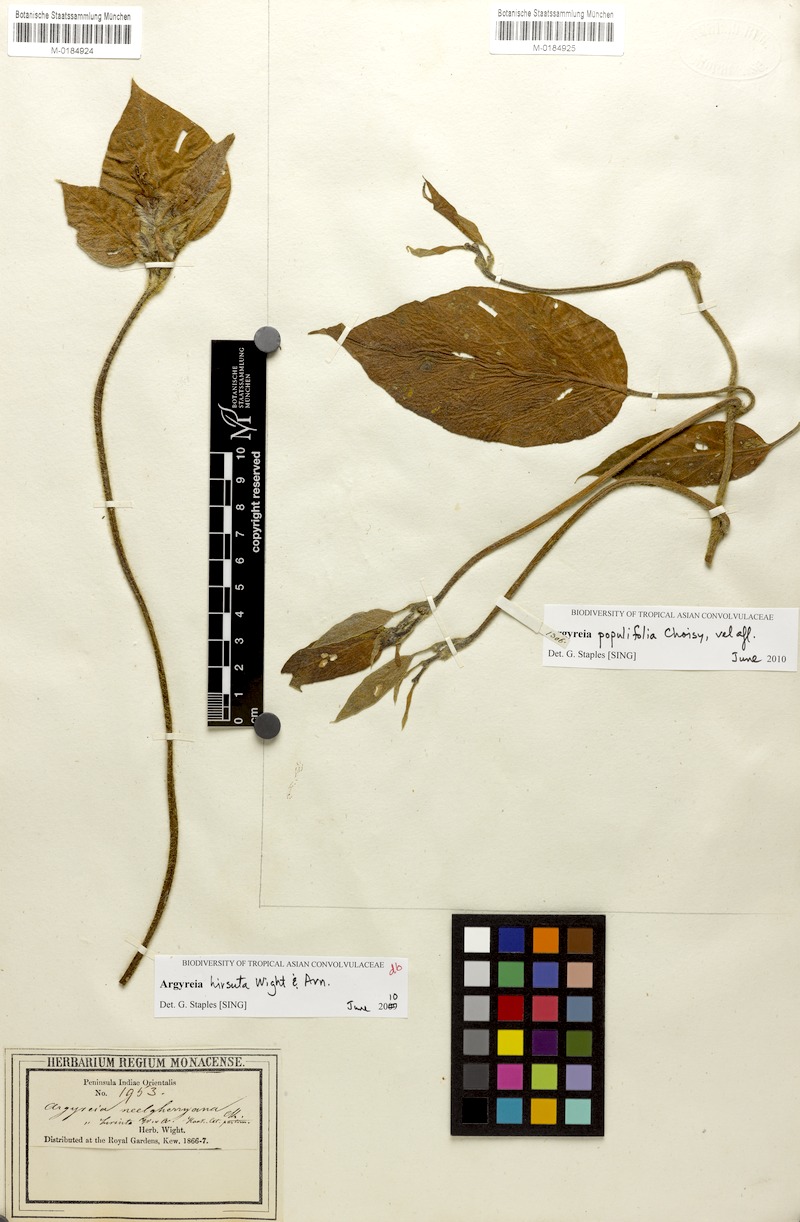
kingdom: Plantae
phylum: Tracheophyta
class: Magnoliopsida
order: Solanales
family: Convolvulaceae
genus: Argyreia
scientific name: Argyreia hirsuta
